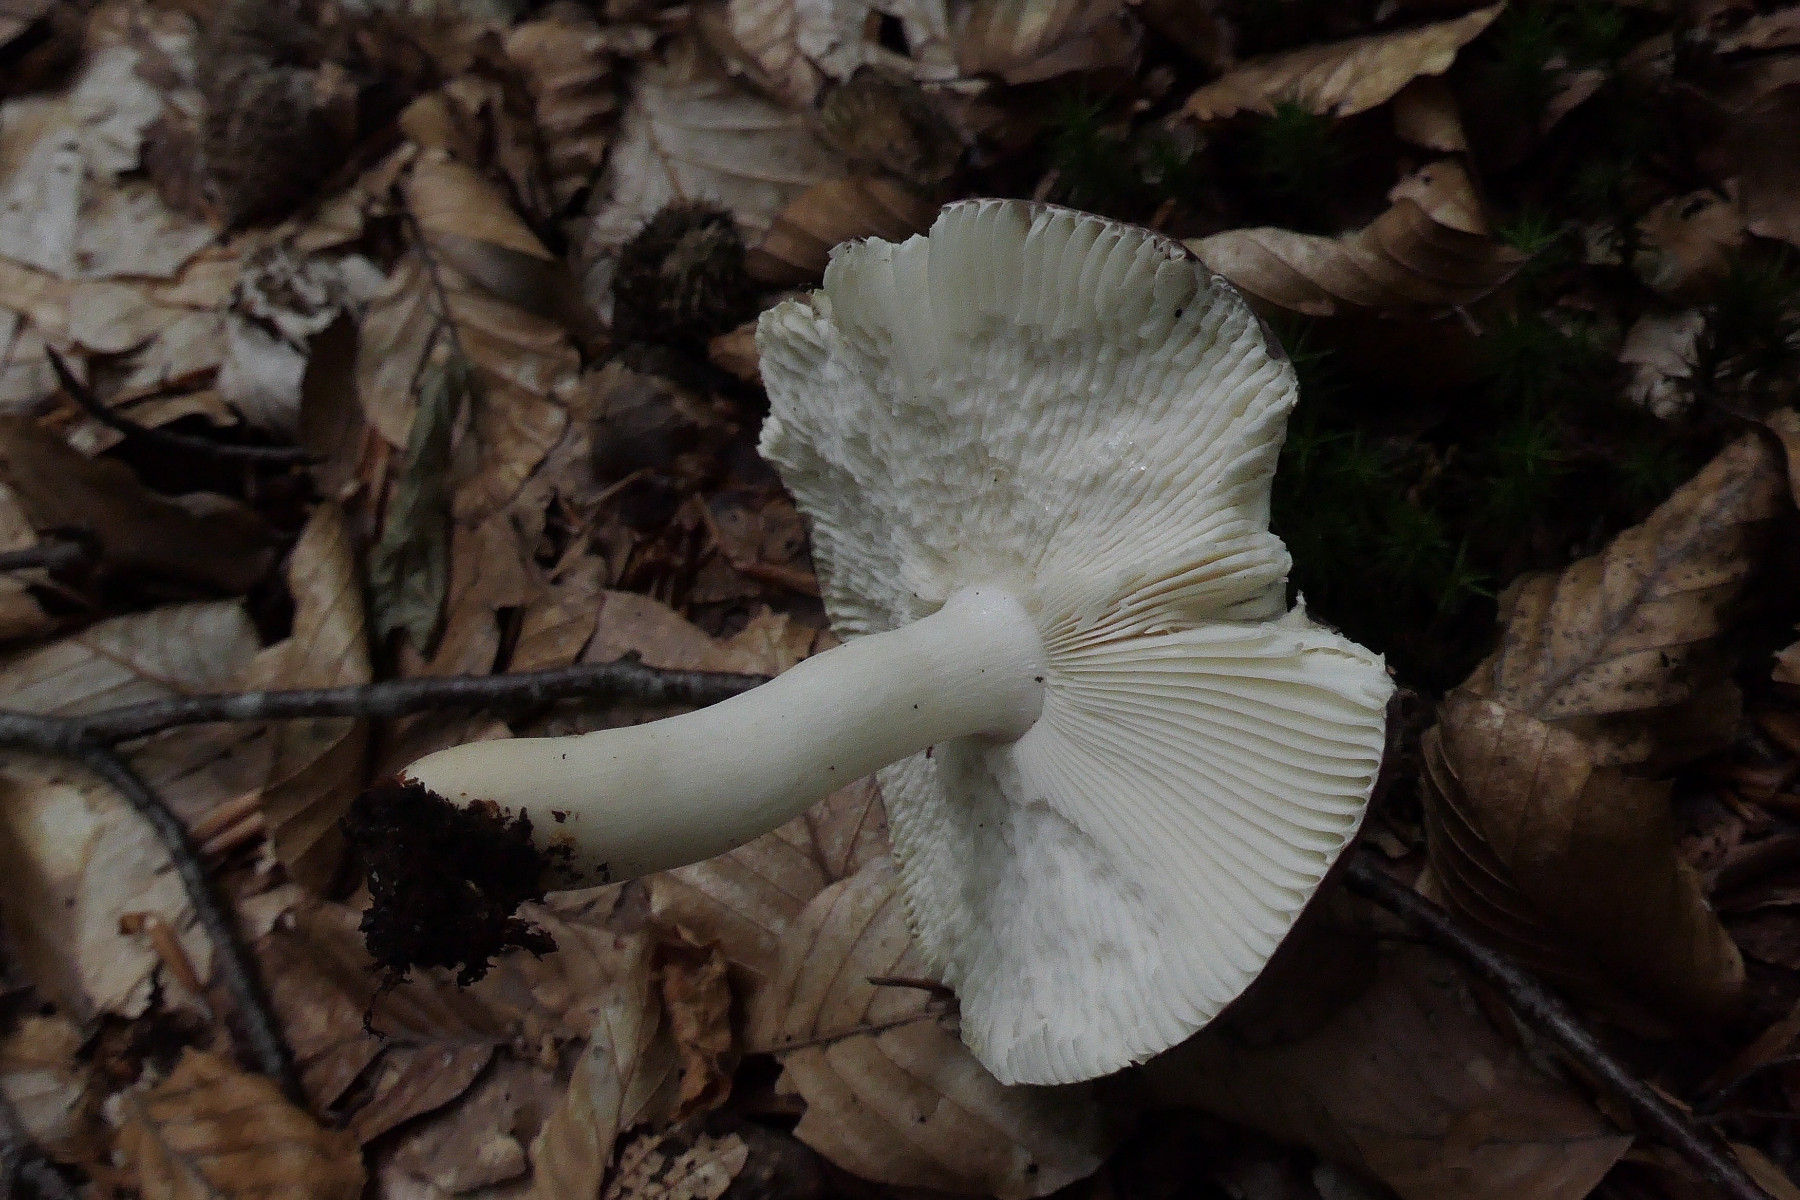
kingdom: Fungi
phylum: Basidiomycota
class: Agaricomycetes
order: Russulales
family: Russulaceae
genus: Russula
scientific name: Russula brunneoviolacea
